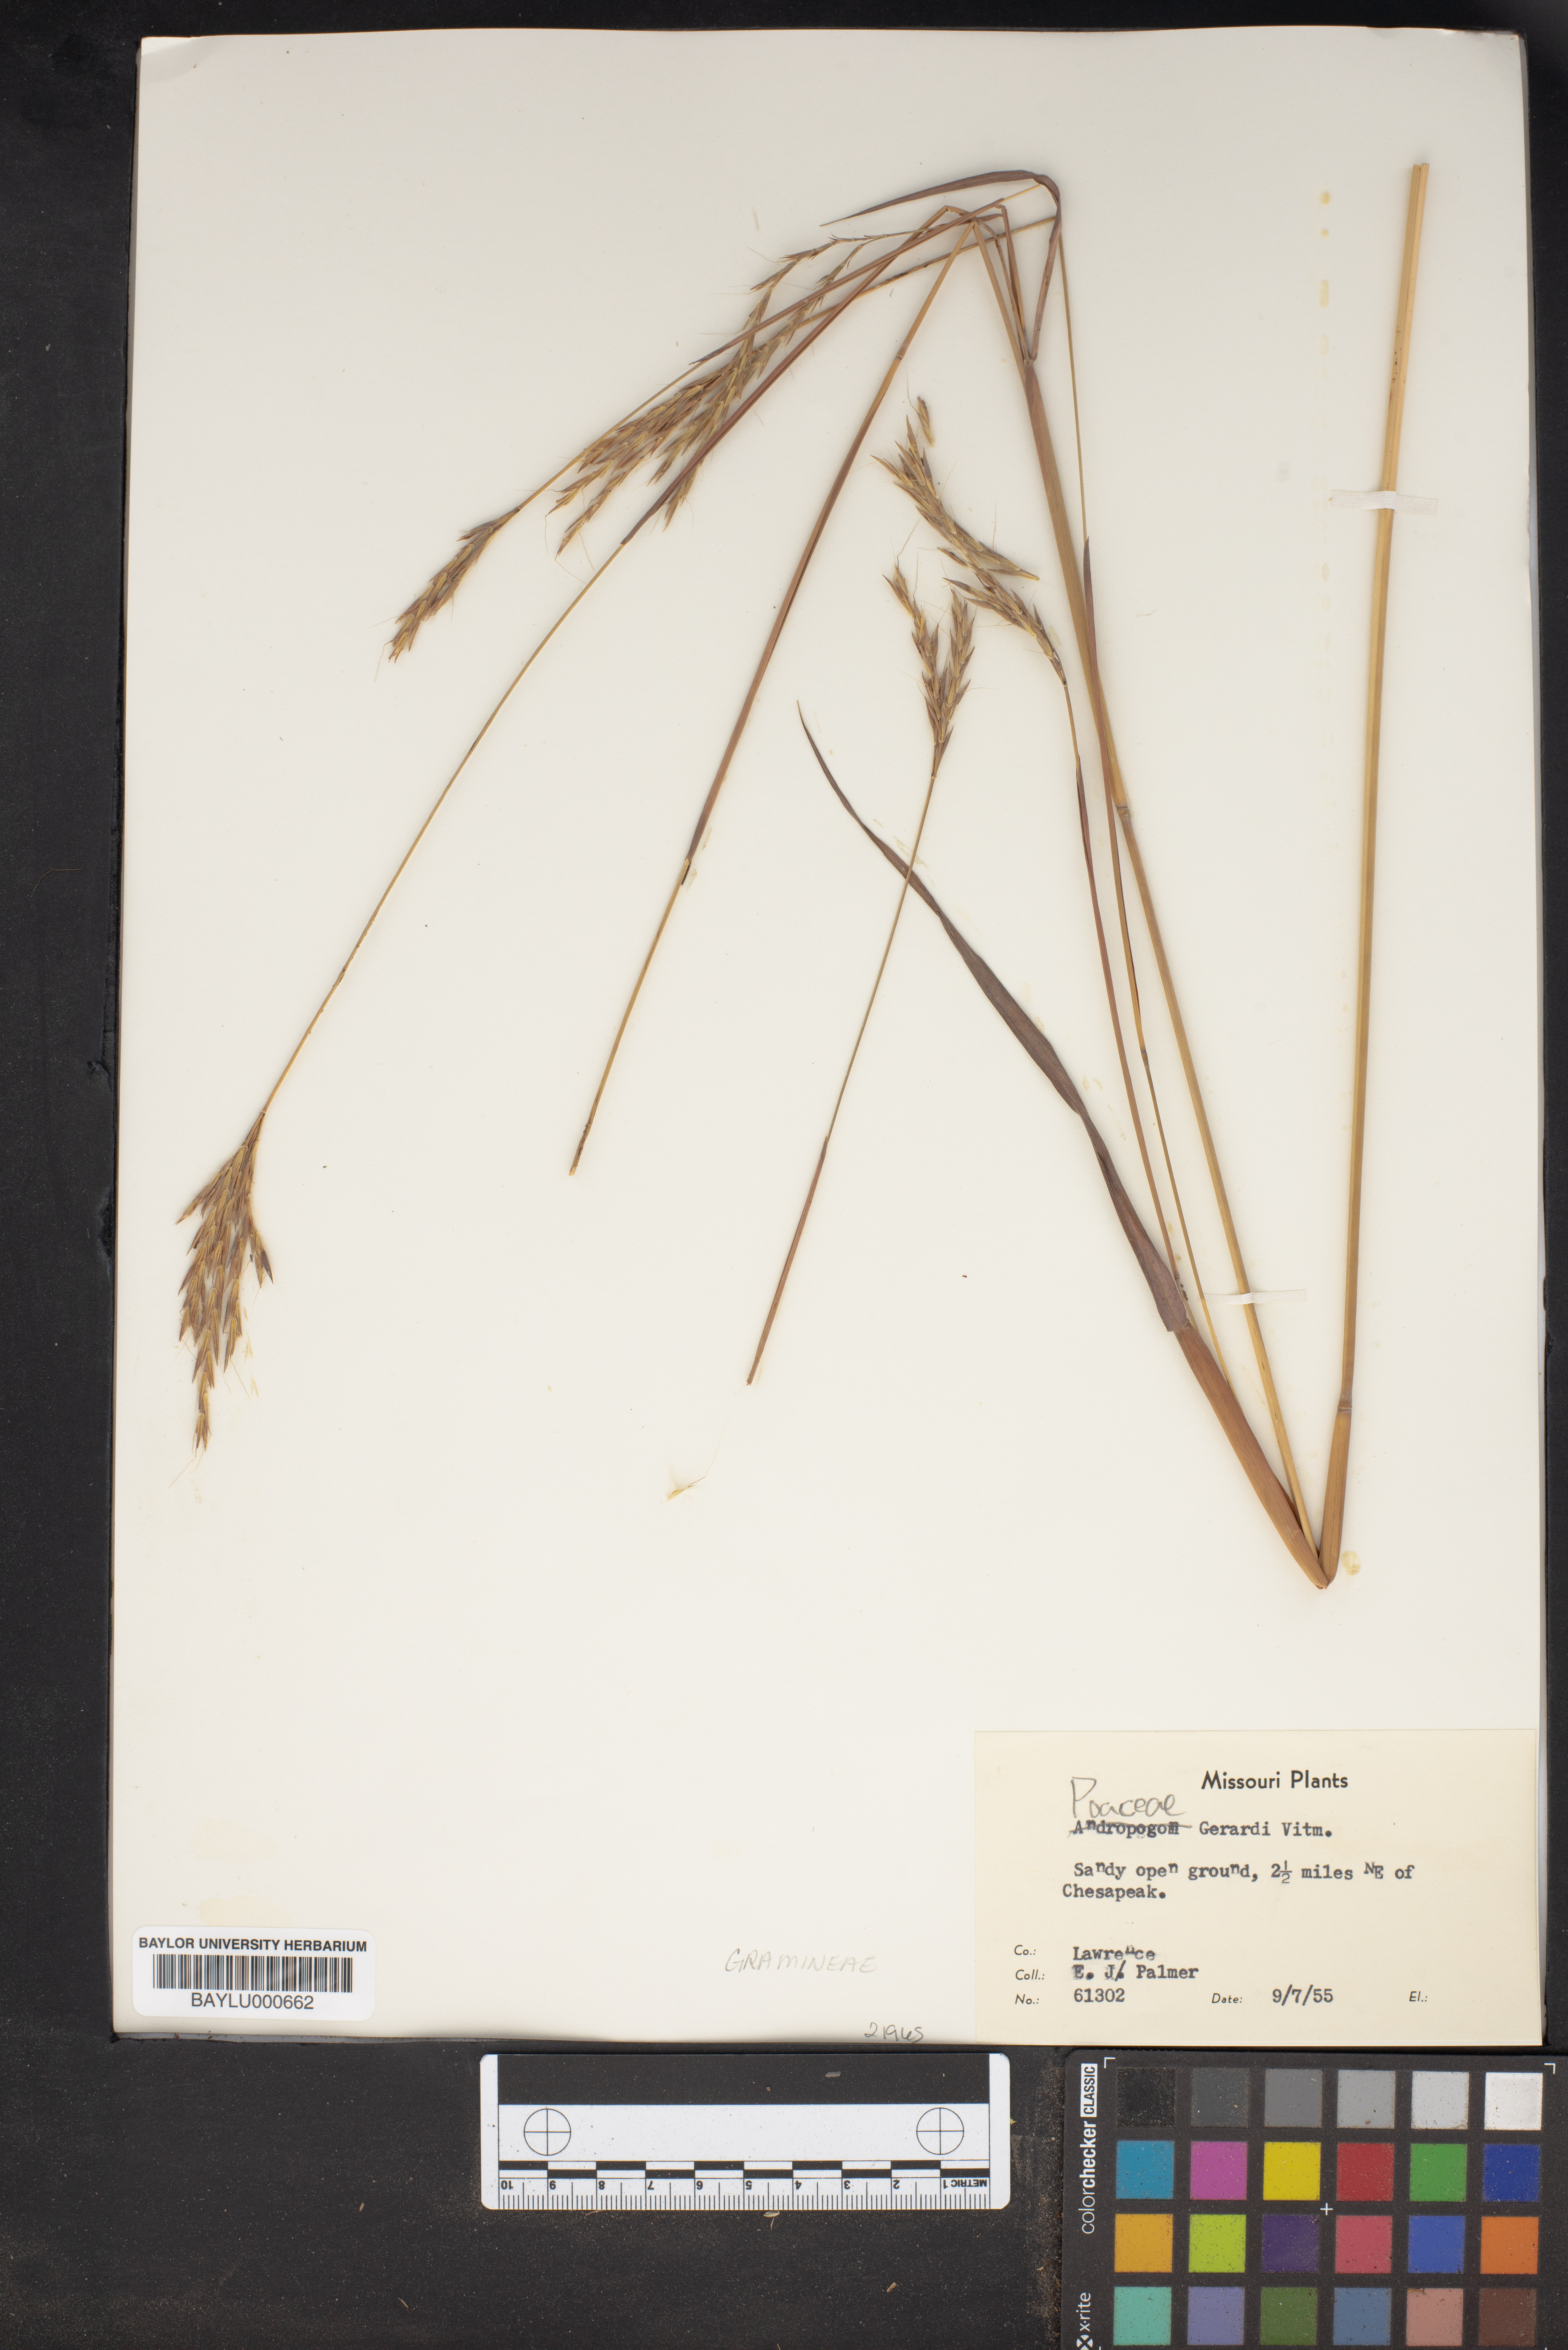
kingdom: Plantae
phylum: Tracheophyta
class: Magnoliopsida
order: Lamiales
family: Orobanchaceae
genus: Agalinis
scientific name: Agalinis
